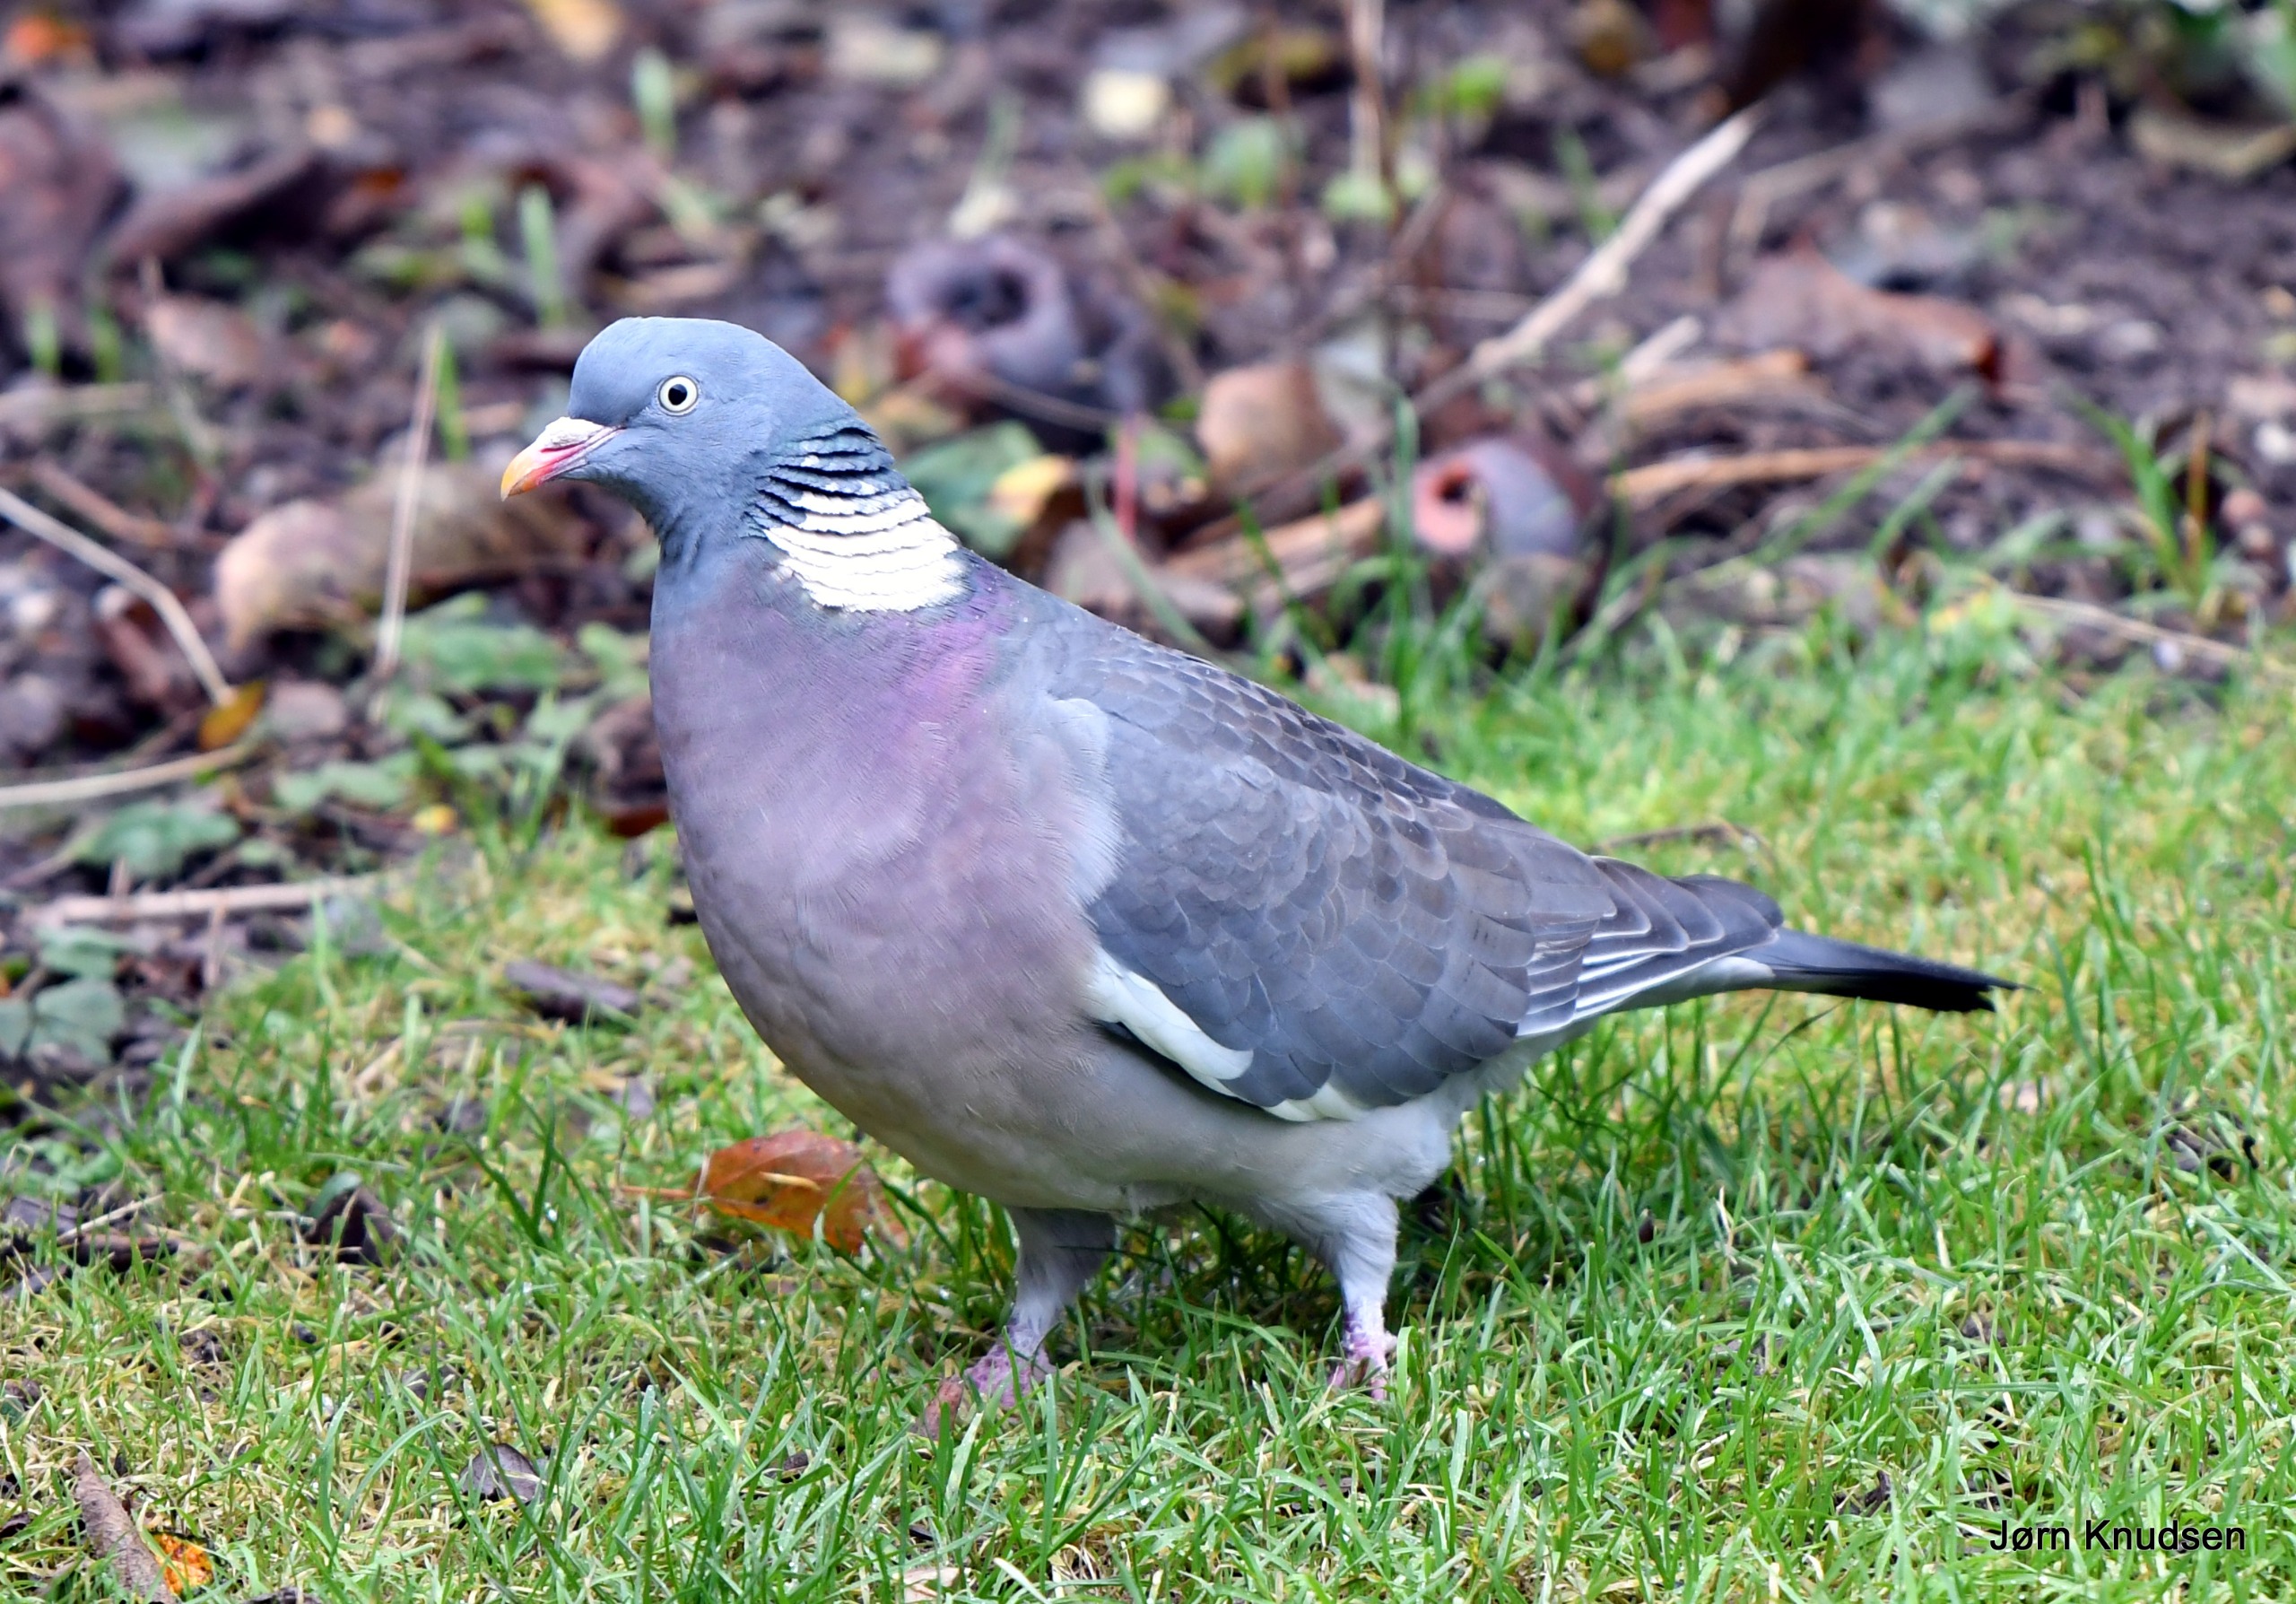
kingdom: Animalia
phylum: Chordata
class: Aves
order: Columbiformes
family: Columbidae
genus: Columba
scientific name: Columba palumbus
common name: Ringdue
